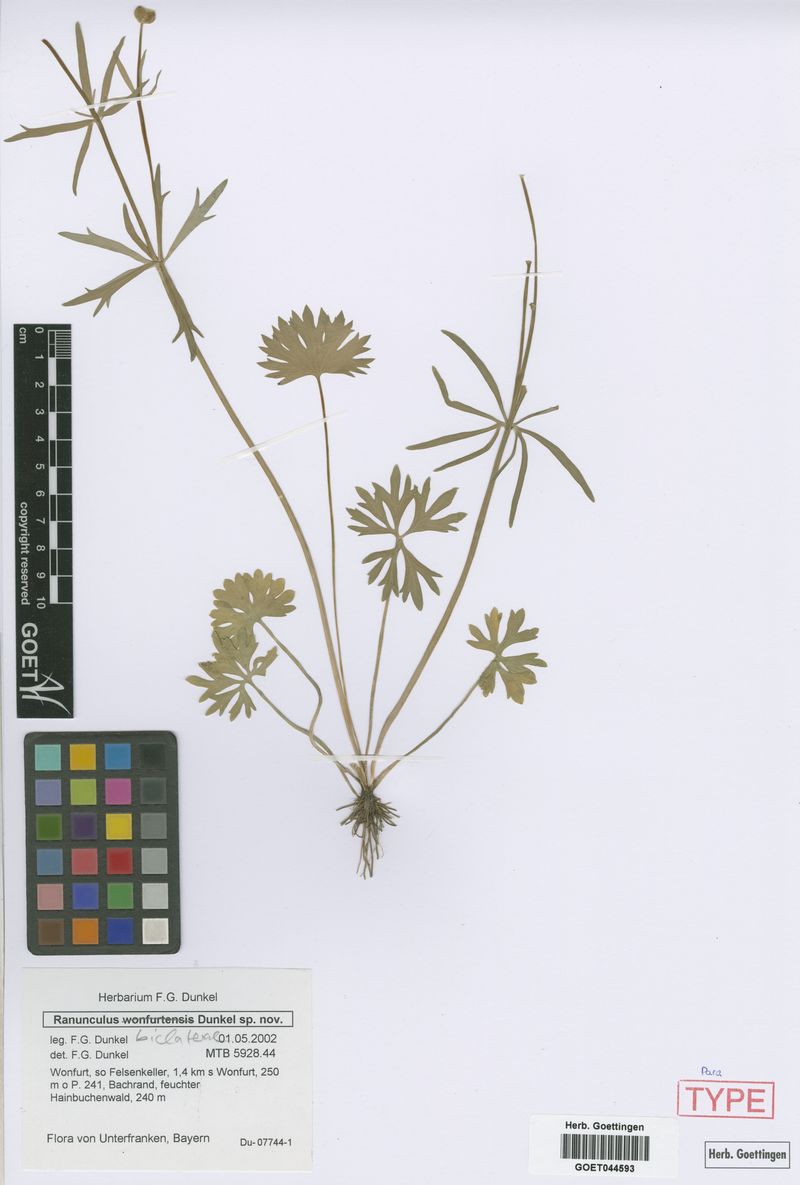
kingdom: Plantae
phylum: Tracheophyta
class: Magnoliopsida
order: Ranunculales
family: Ranunculaceae
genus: Ranunculus
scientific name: Ranunculus biclaterae
